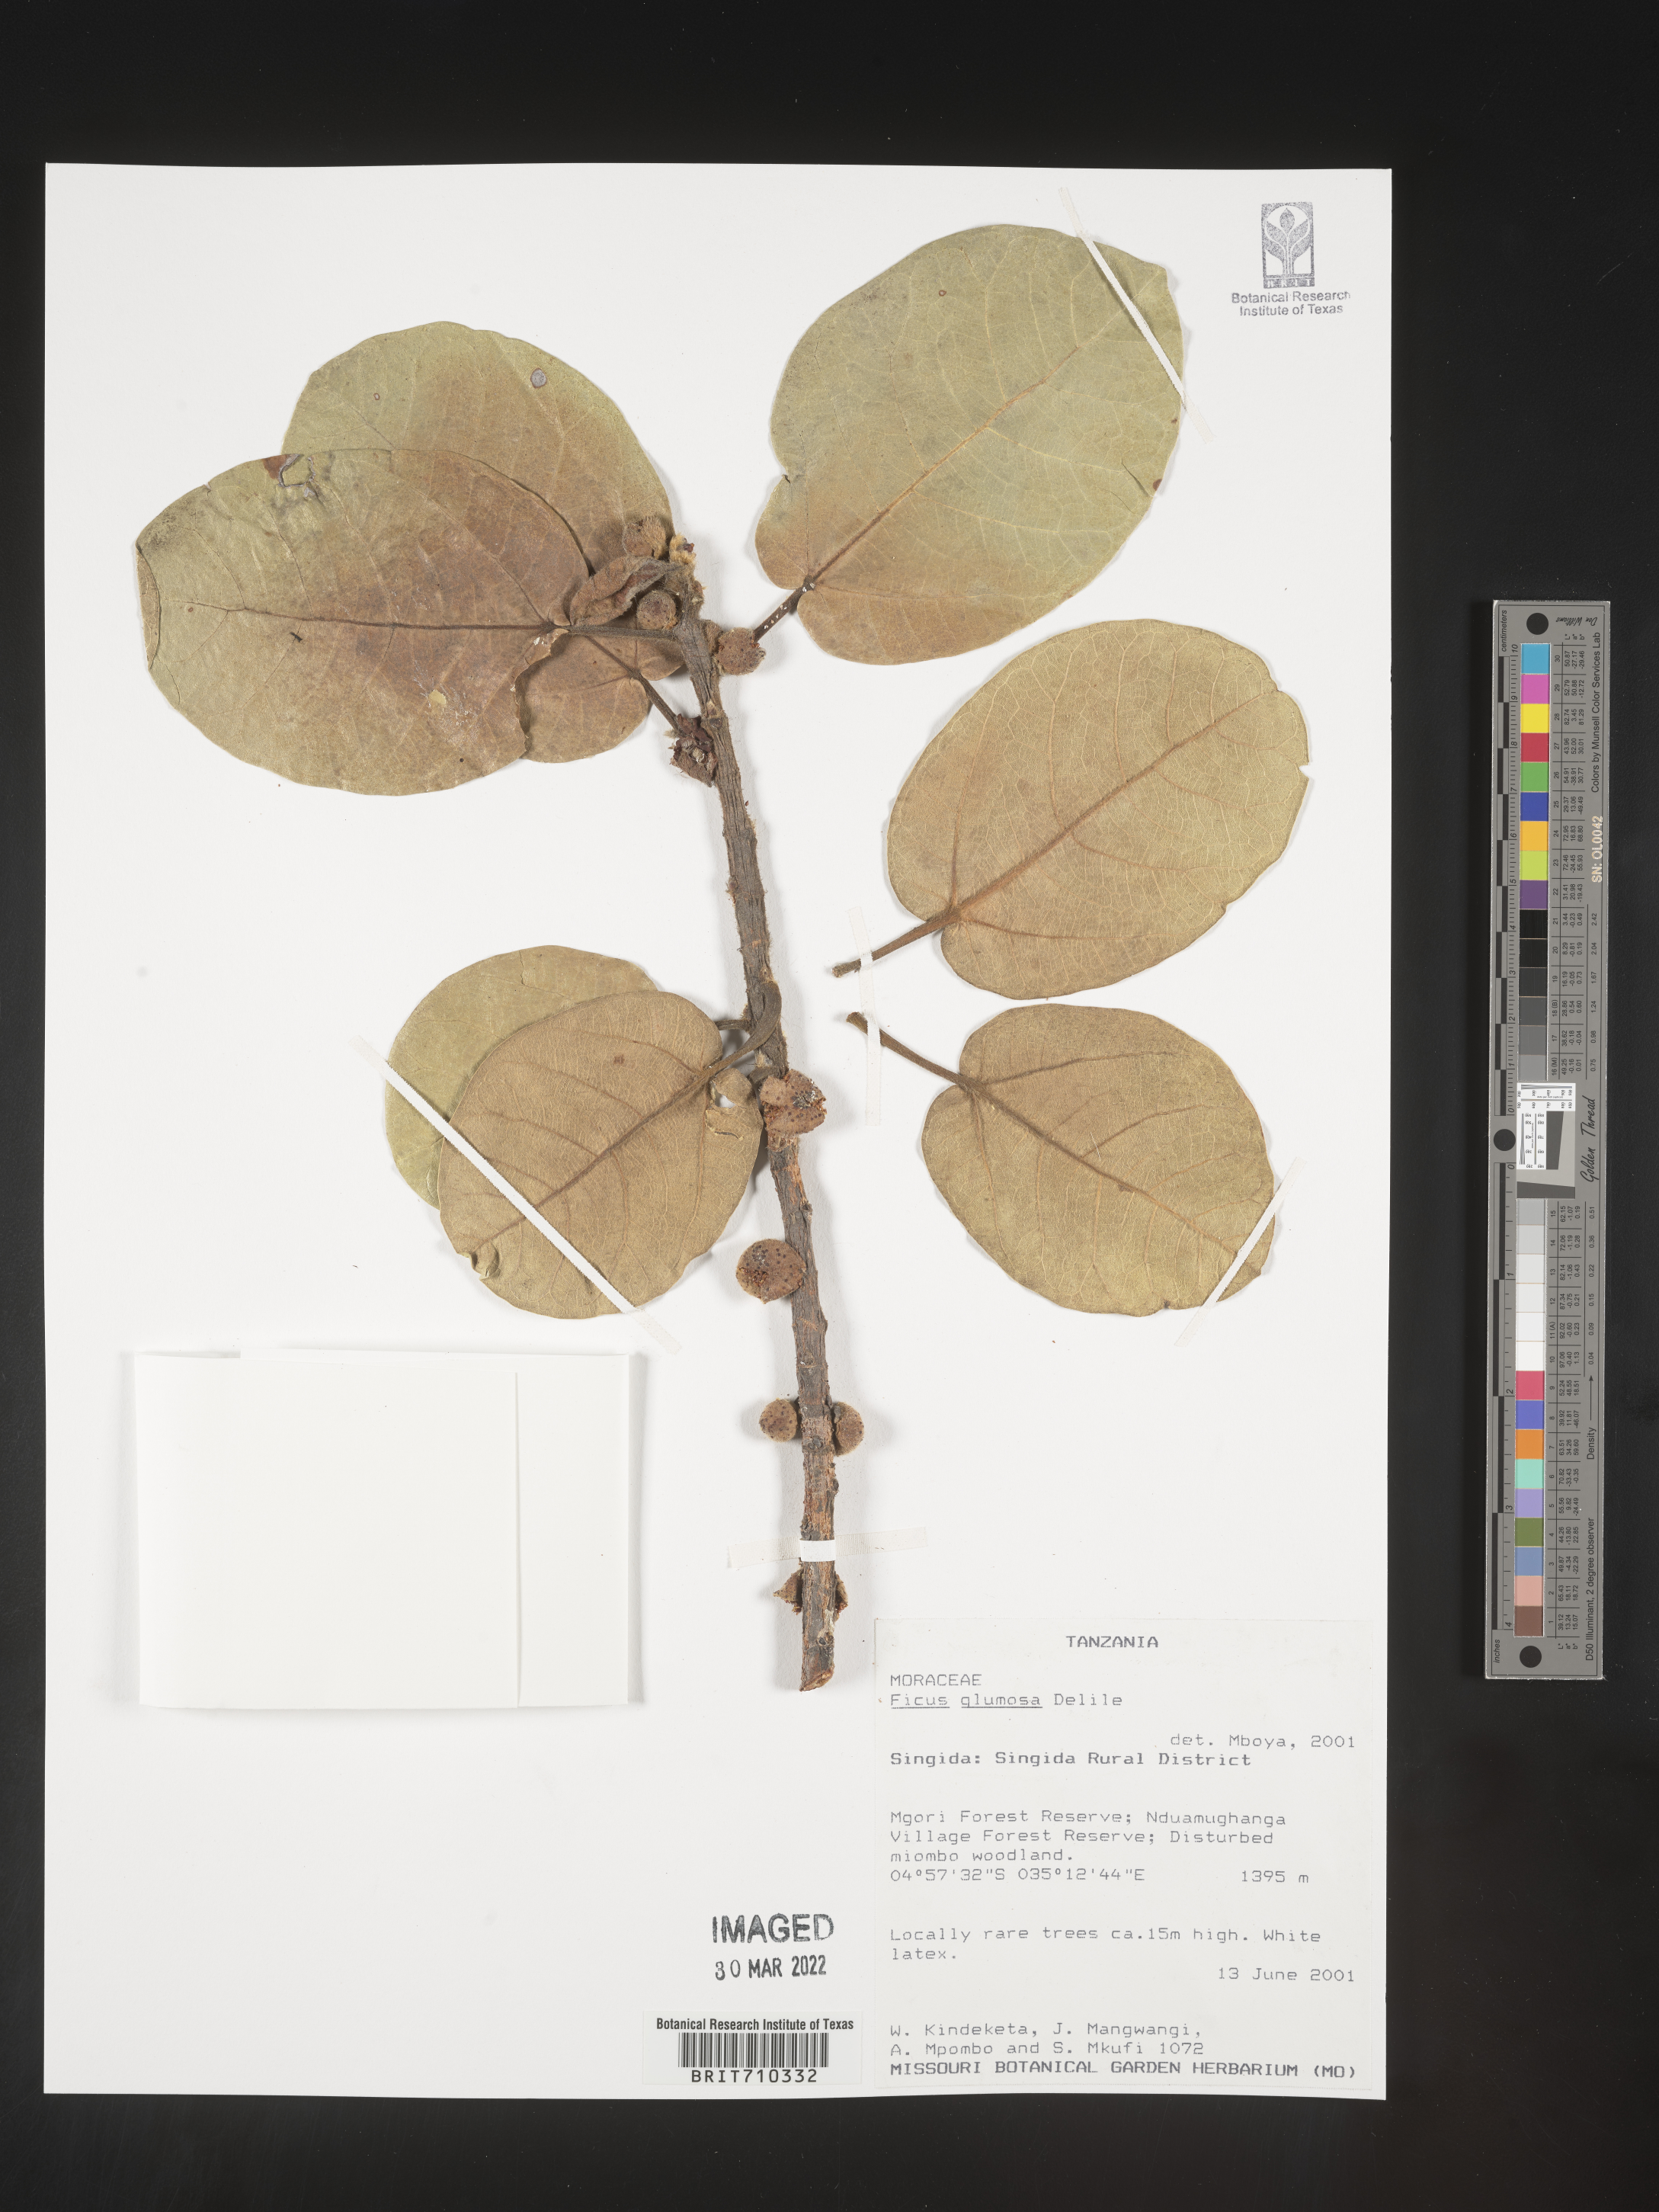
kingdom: Plantae
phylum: Tracheophyta
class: Magnoliopsida
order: Rosales
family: Moraceae
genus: Ficus
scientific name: Ficus
